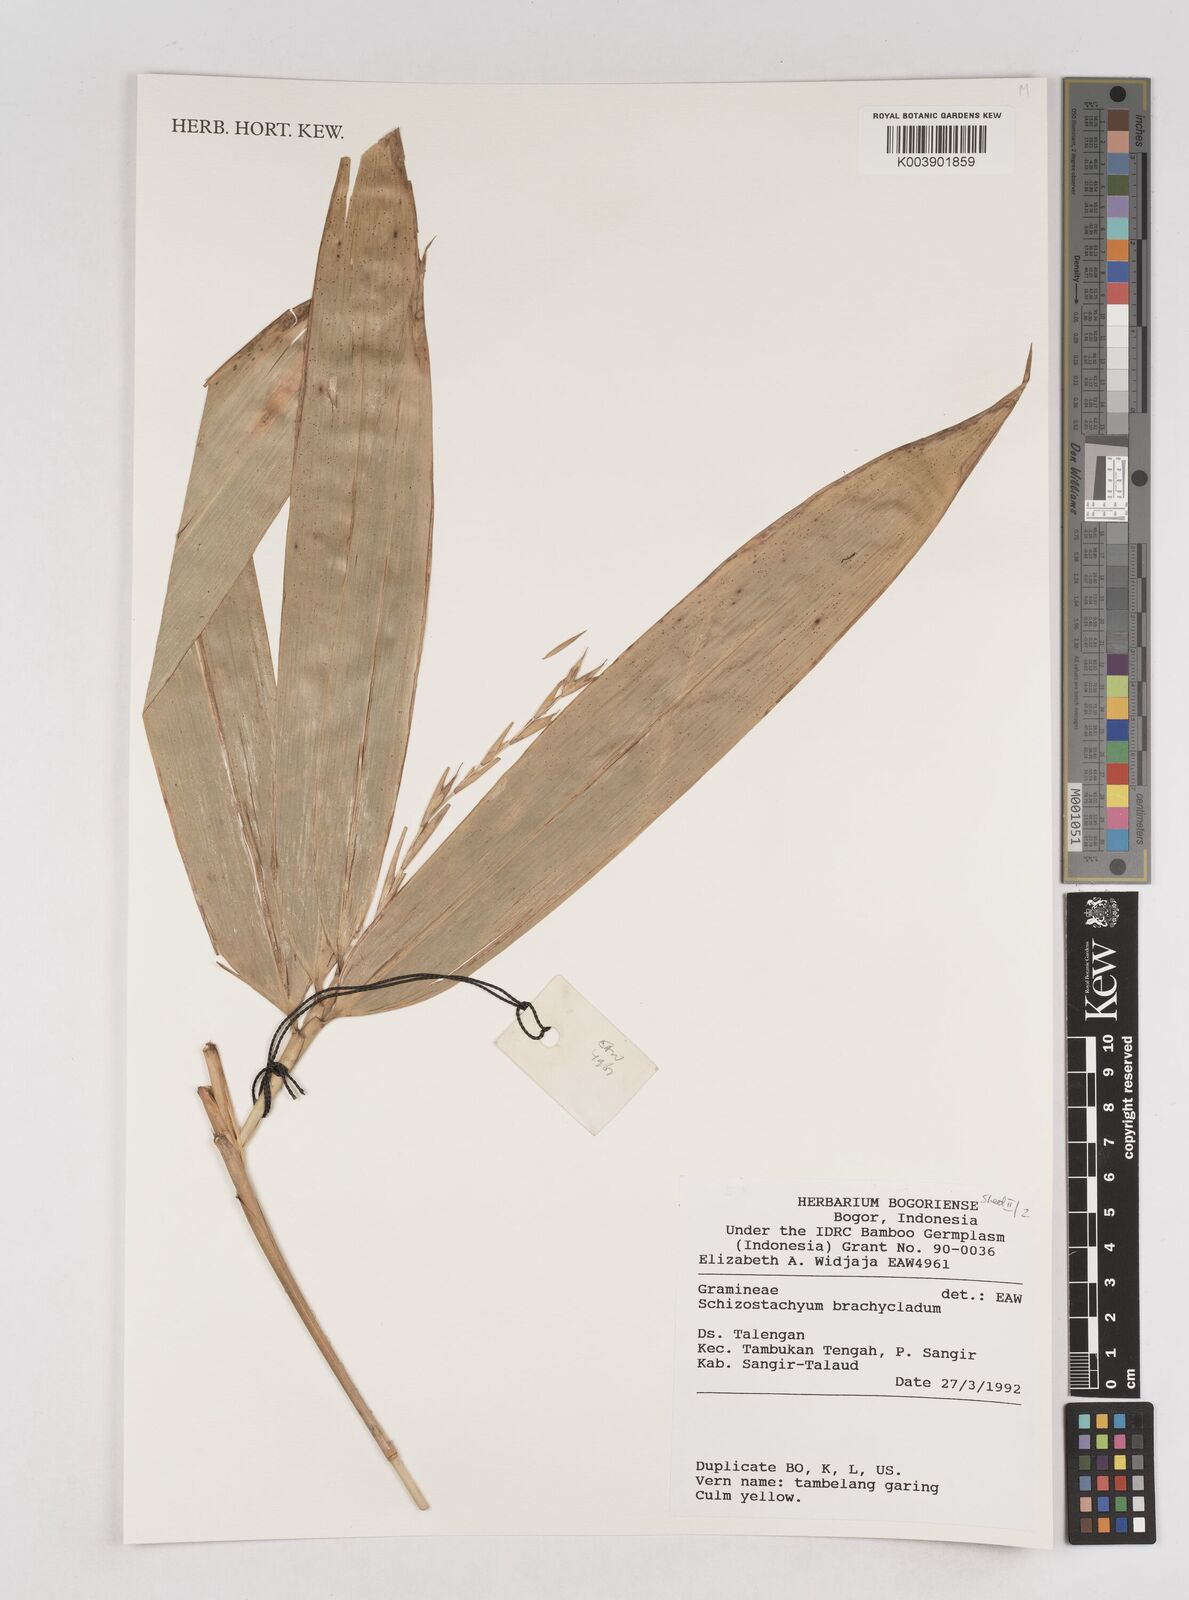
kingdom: Plantae
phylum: Tracheophyta
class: Liliopsida
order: Poales
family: Poaceae
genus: Schizostachyum
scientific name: Schizostachyum brachycladum
